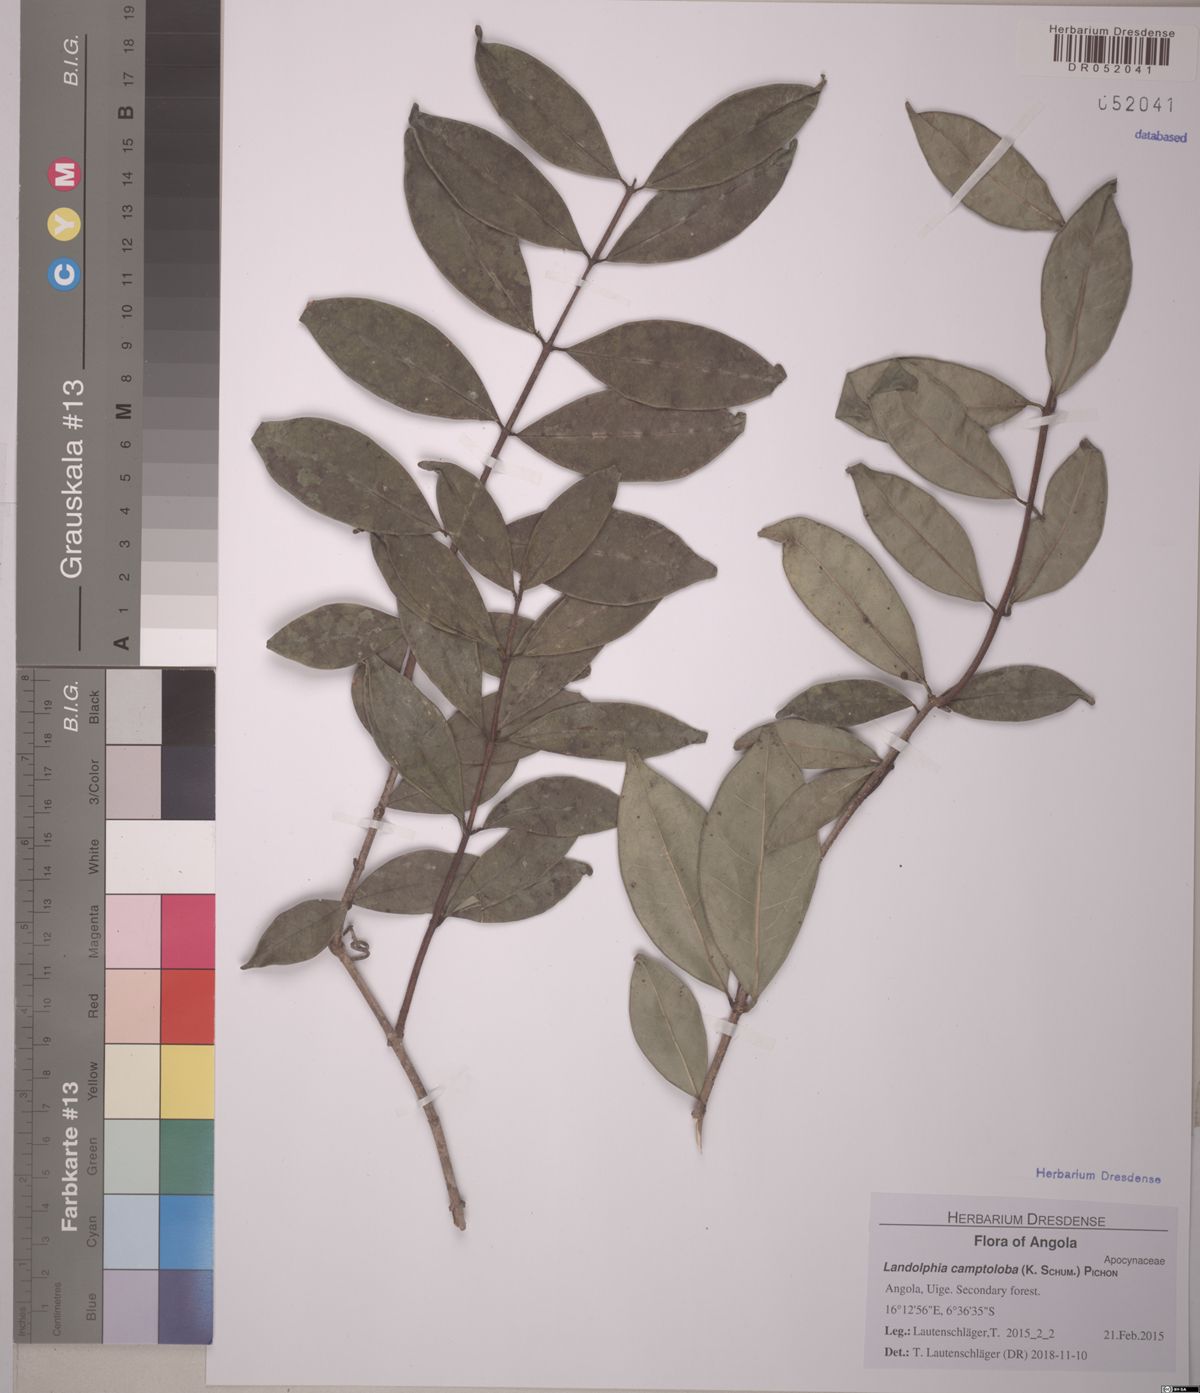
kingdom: Plantae
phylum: Tracheophyta
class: Magnoliopsida
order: Gentianales
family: Apocynaceae
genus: Landolphia
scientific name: Landolphia camptoloba
